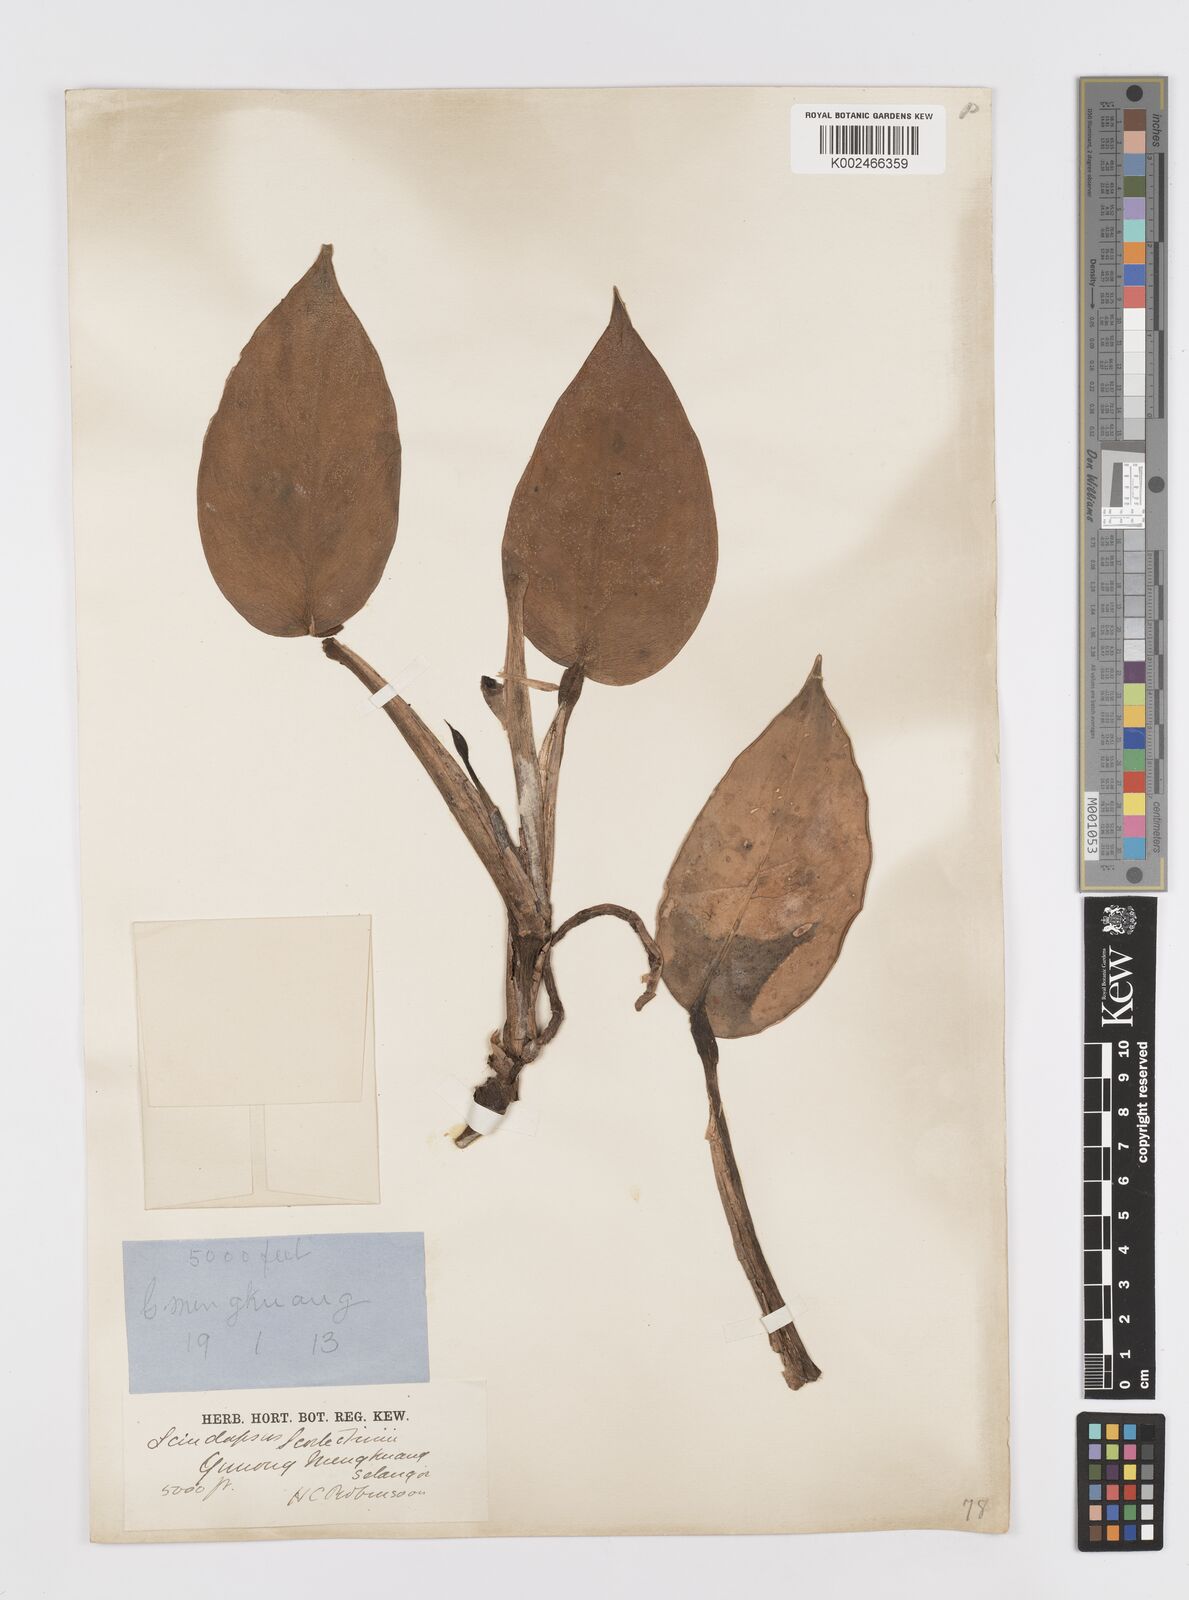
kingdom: Plantae
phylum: Tracheophyta
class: Liliopsida
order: Alismatales
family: Araceae
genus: Scindapsus
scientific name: Scindapsus scortechinii
